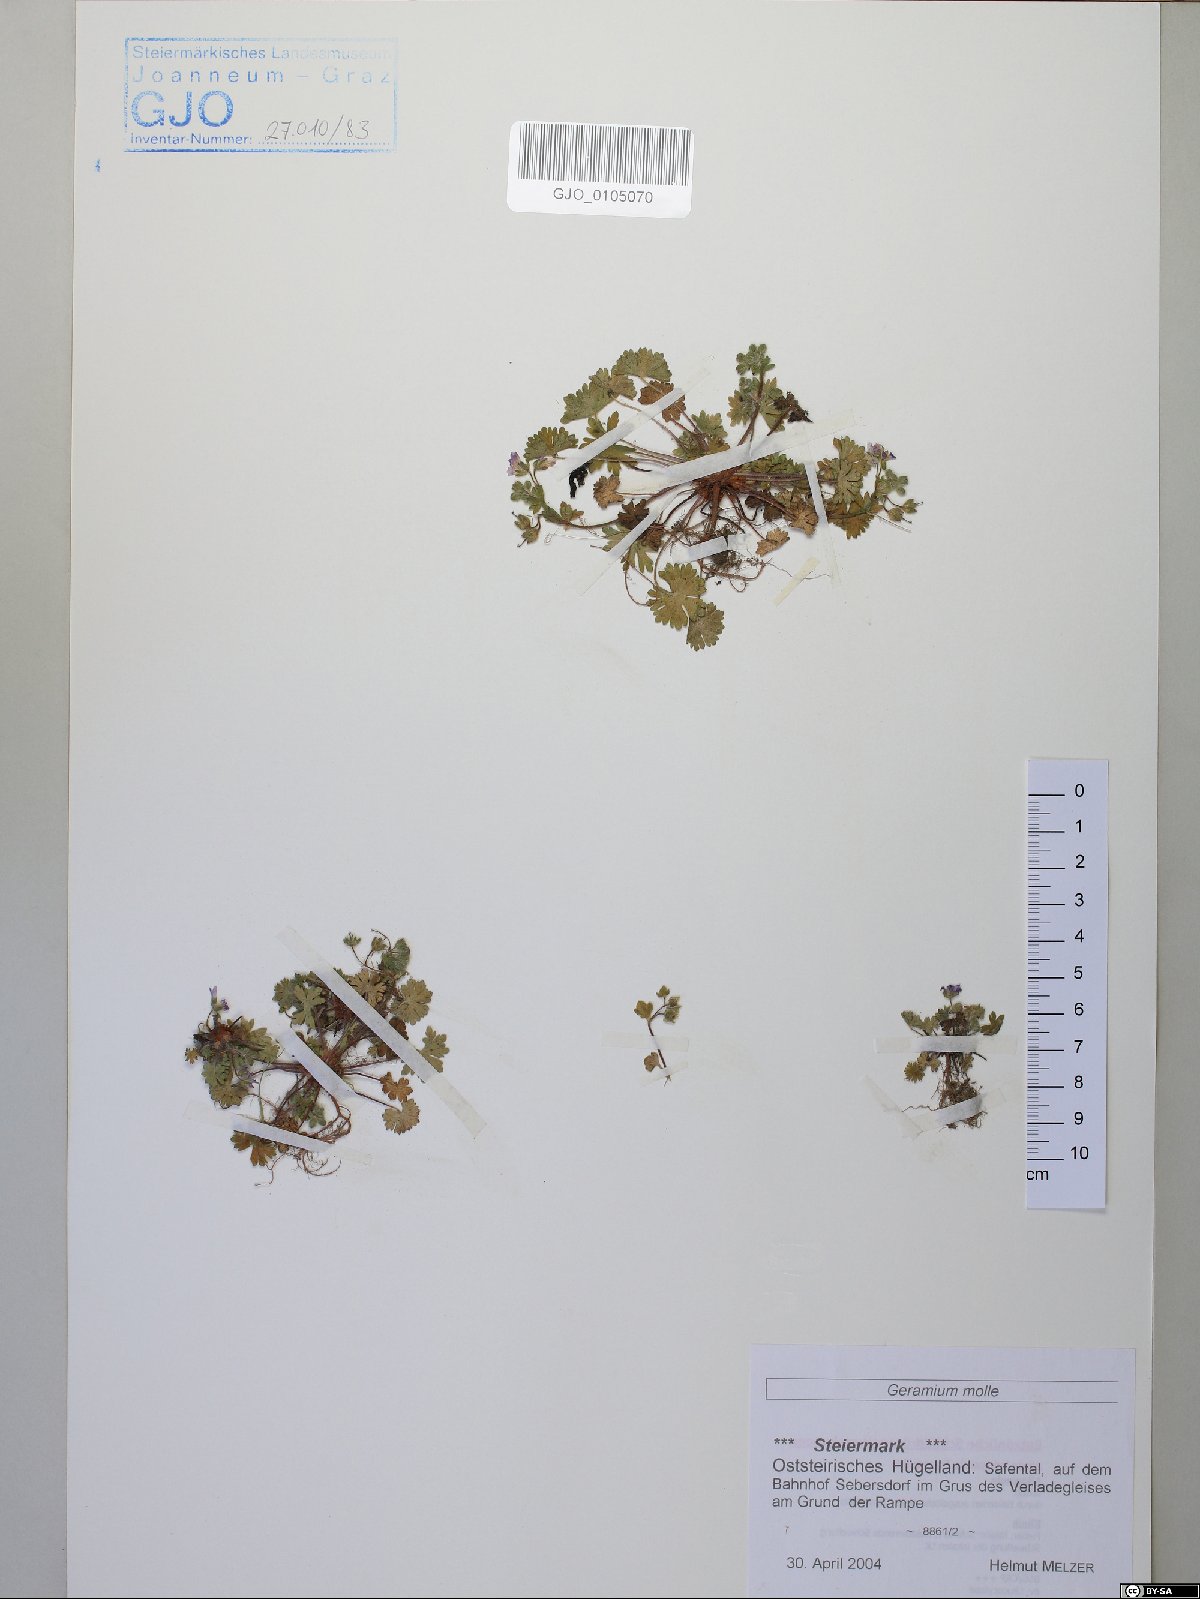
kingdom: Plantae
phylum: Tracheophyta
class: Magnoliopsida
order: Geraniales
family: Geraniaceae
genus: Geranium
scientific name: Geranium molle
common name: Dove's-foot crane's-bill
